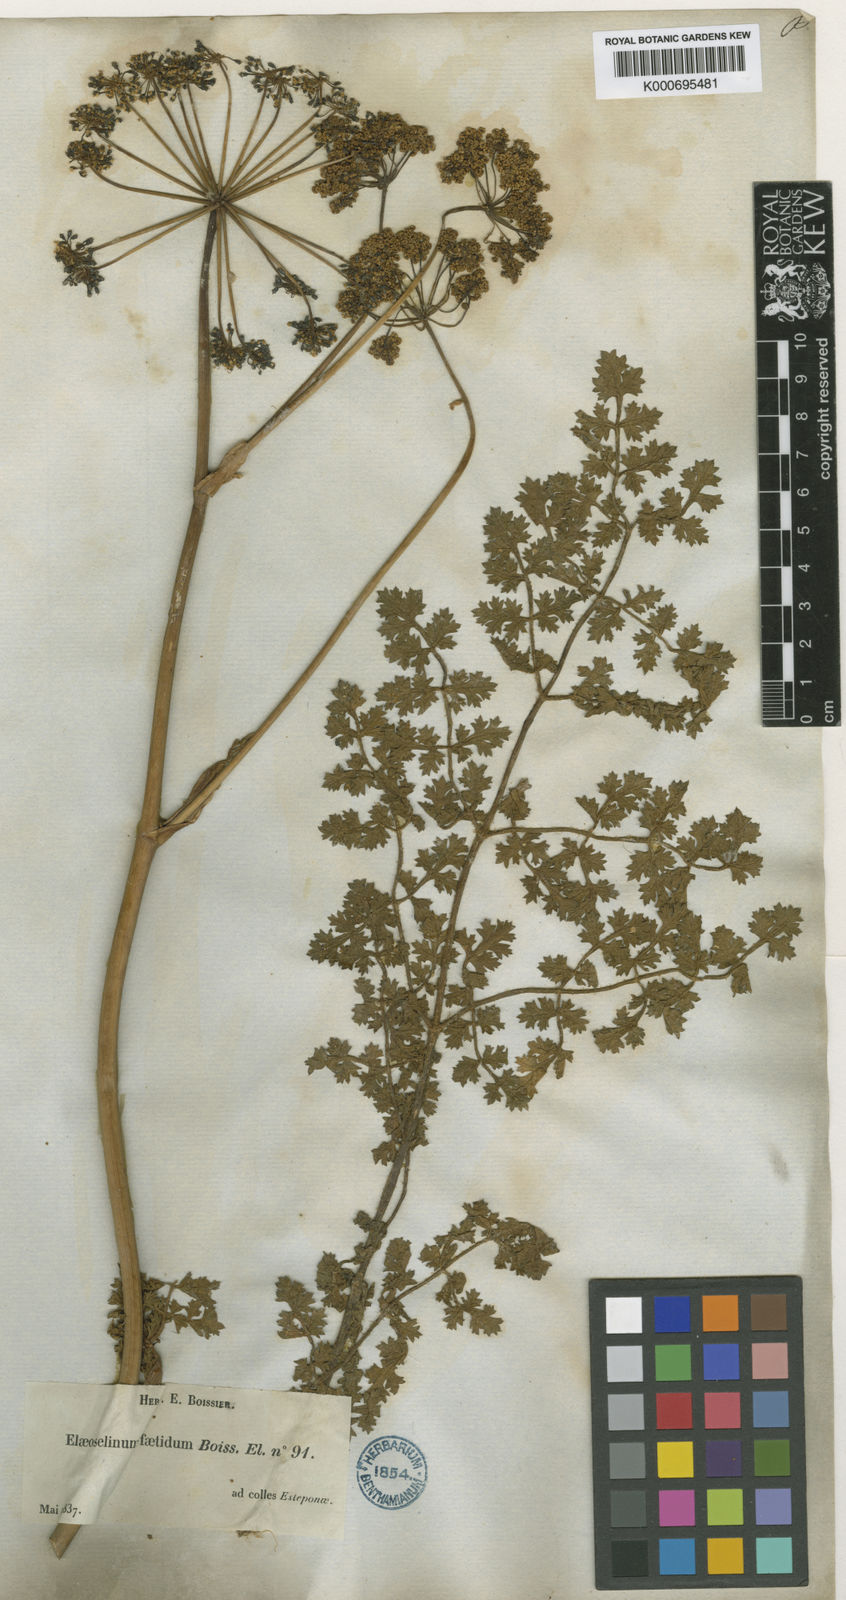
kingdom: Plantae
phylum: Tracheophyta
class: Magnoliopsida
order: Apiales
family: Apiaceae
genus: Thapsia
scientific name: Thapsia foetida
